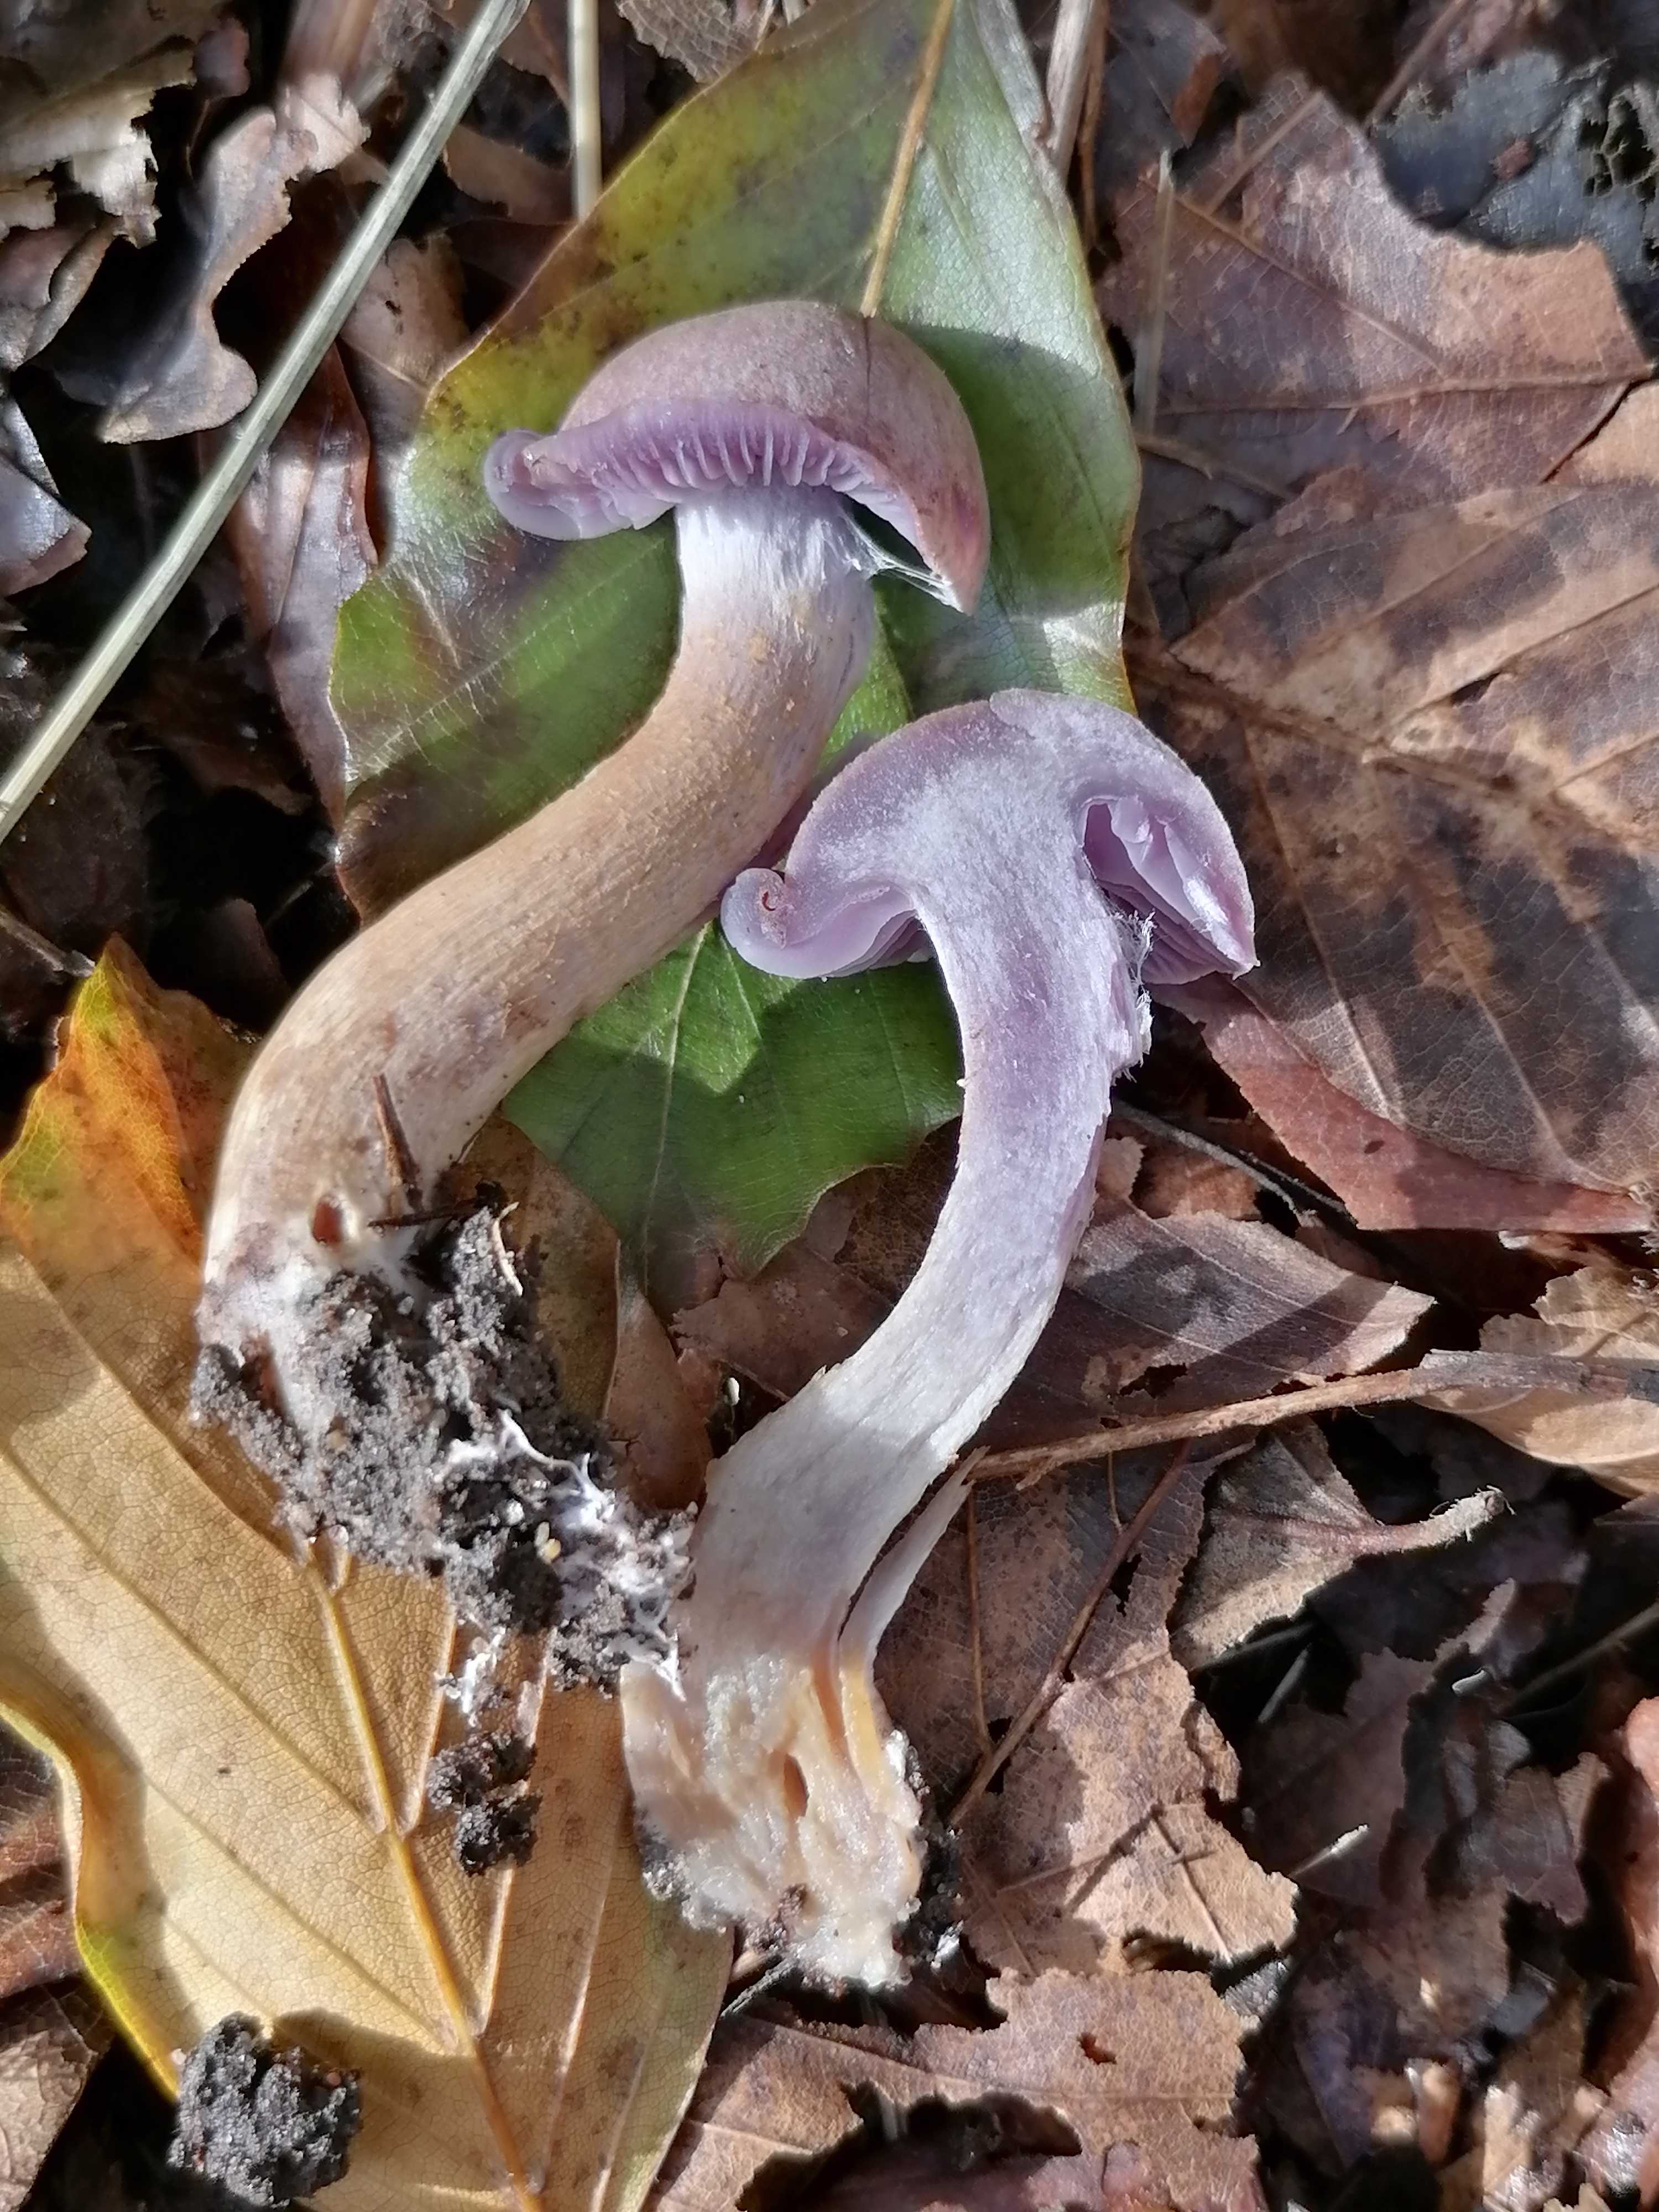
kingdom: Fungi
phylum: Basidiomycota
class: Agaricomycetes
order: Agaricales
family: Cortinariaceae
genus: Cortinarius
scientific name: Cortinarius
